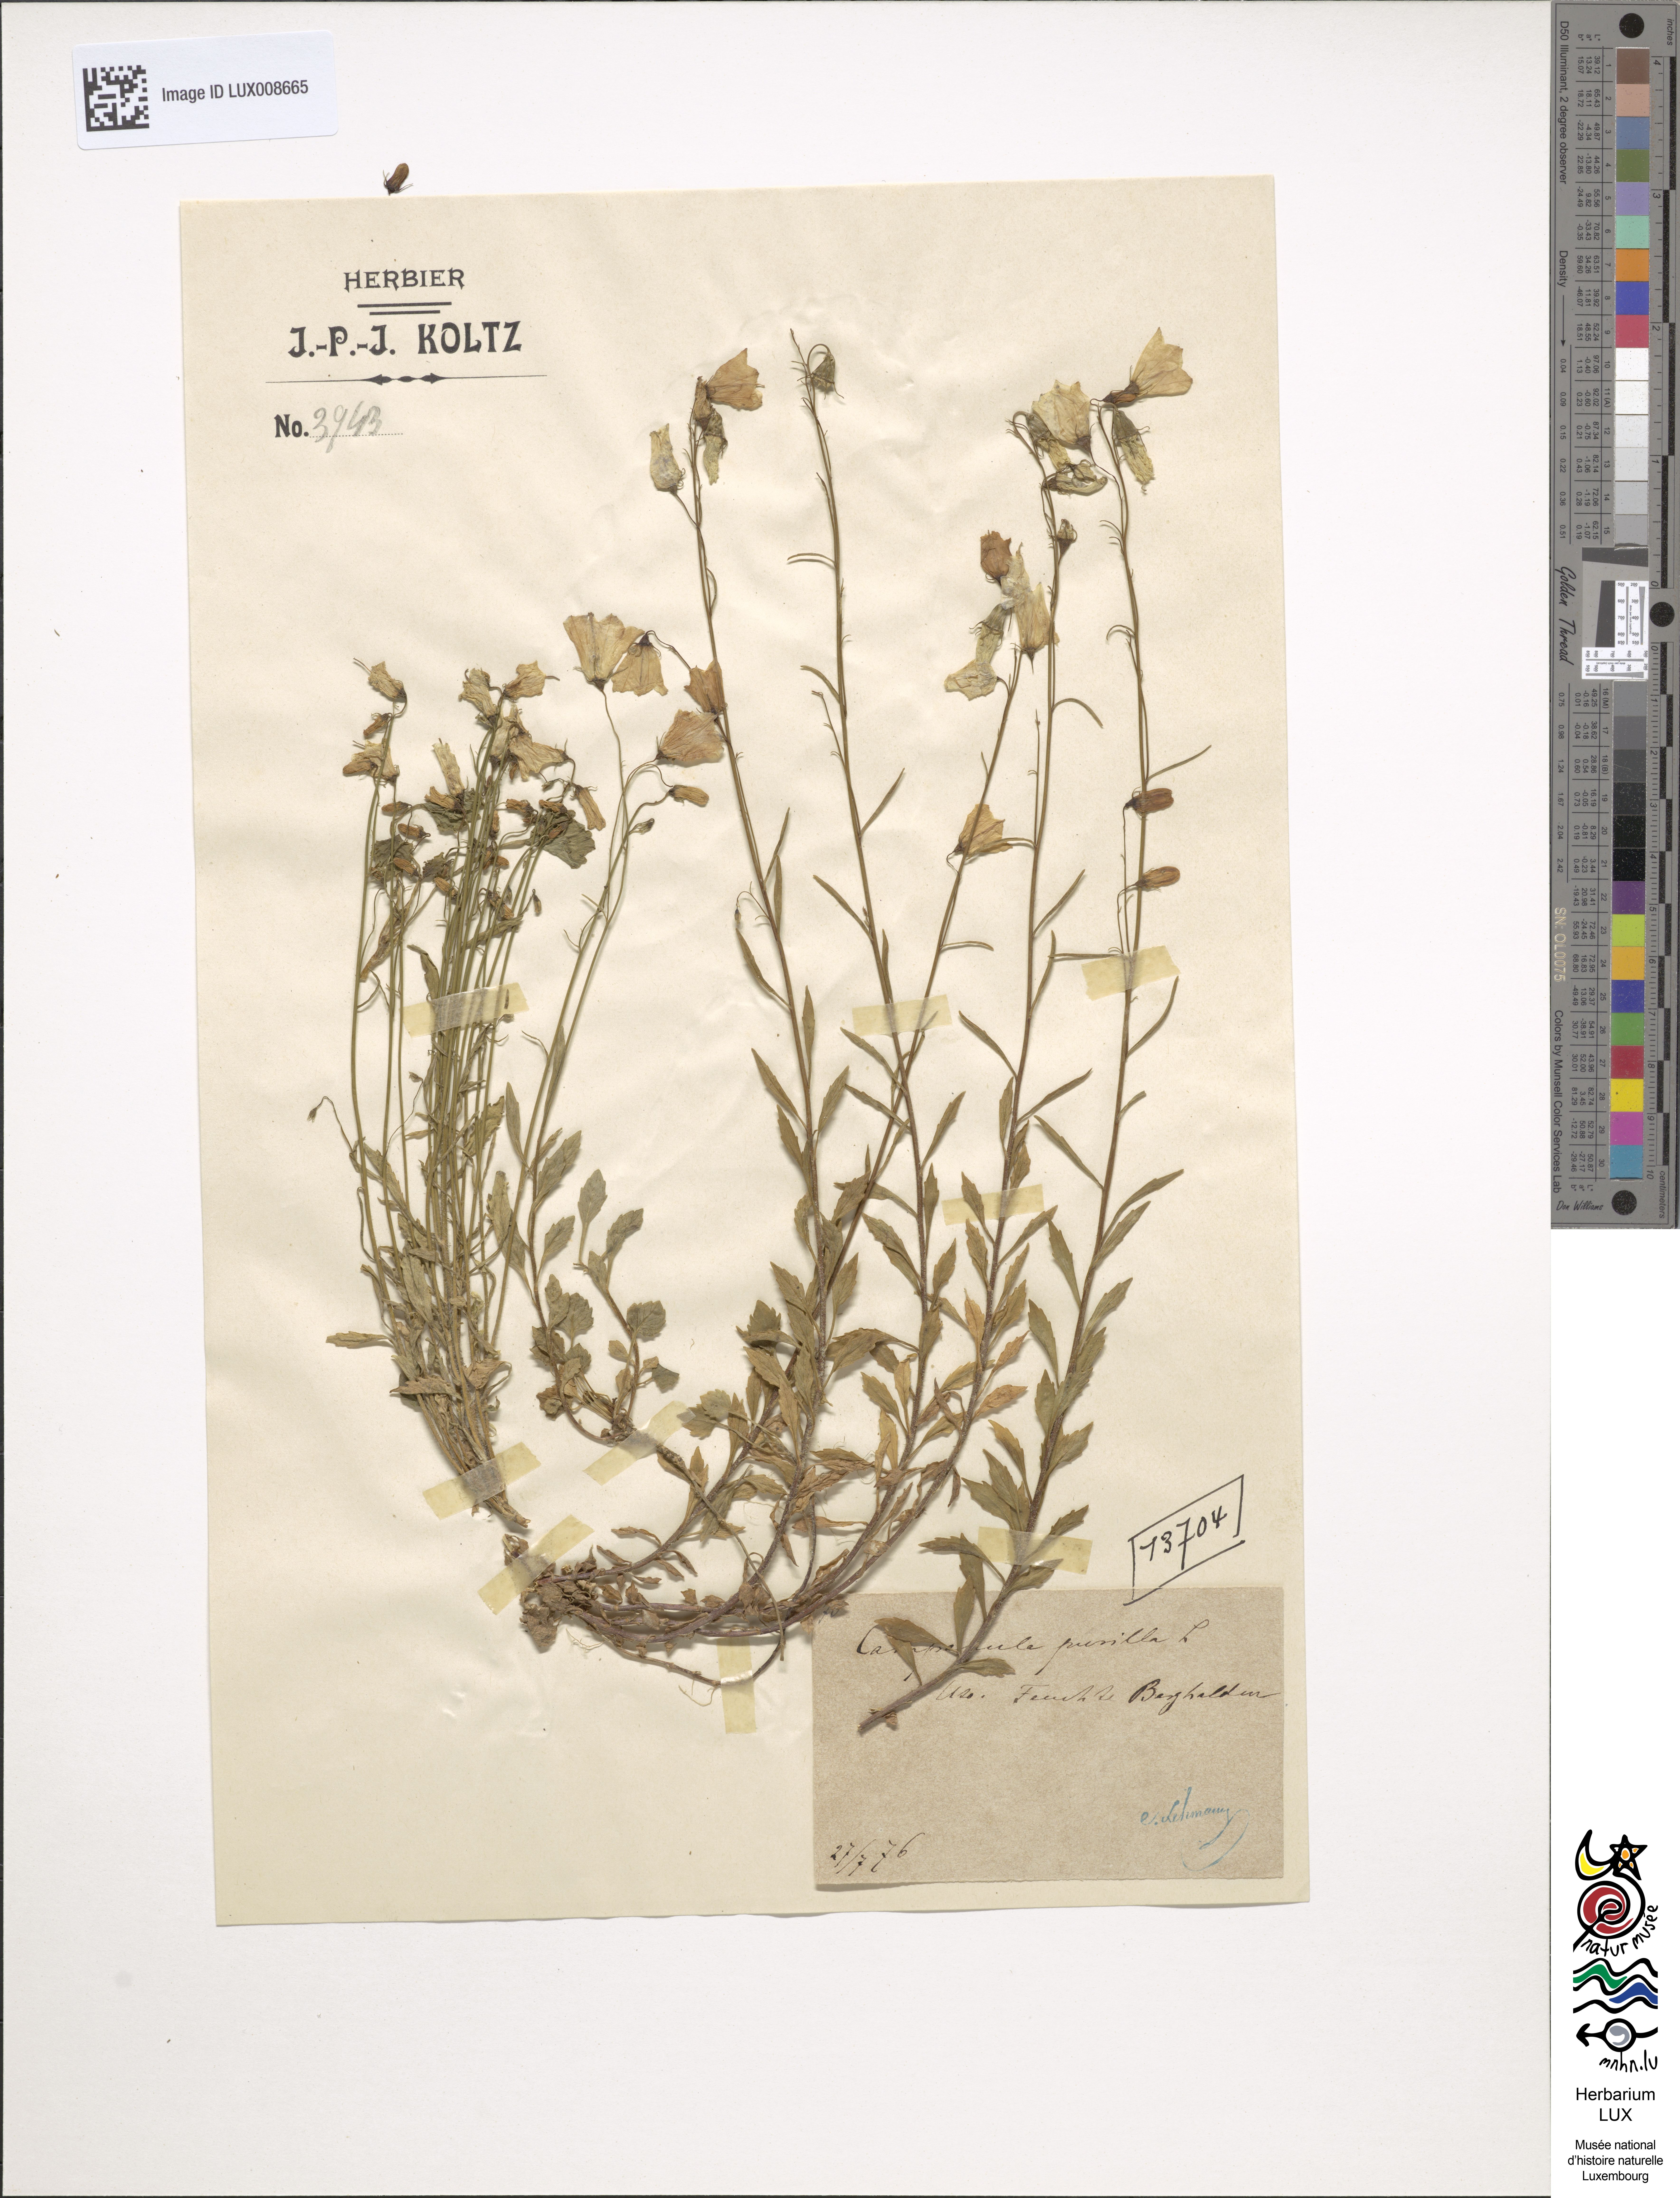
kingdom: Plantae
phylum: Tracheophyta
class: Magnoliopsida
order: Asterales
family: Campanulaceae
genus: Campanula
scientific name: Campanula cochleariifolia
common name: Fairies'-thimbles
